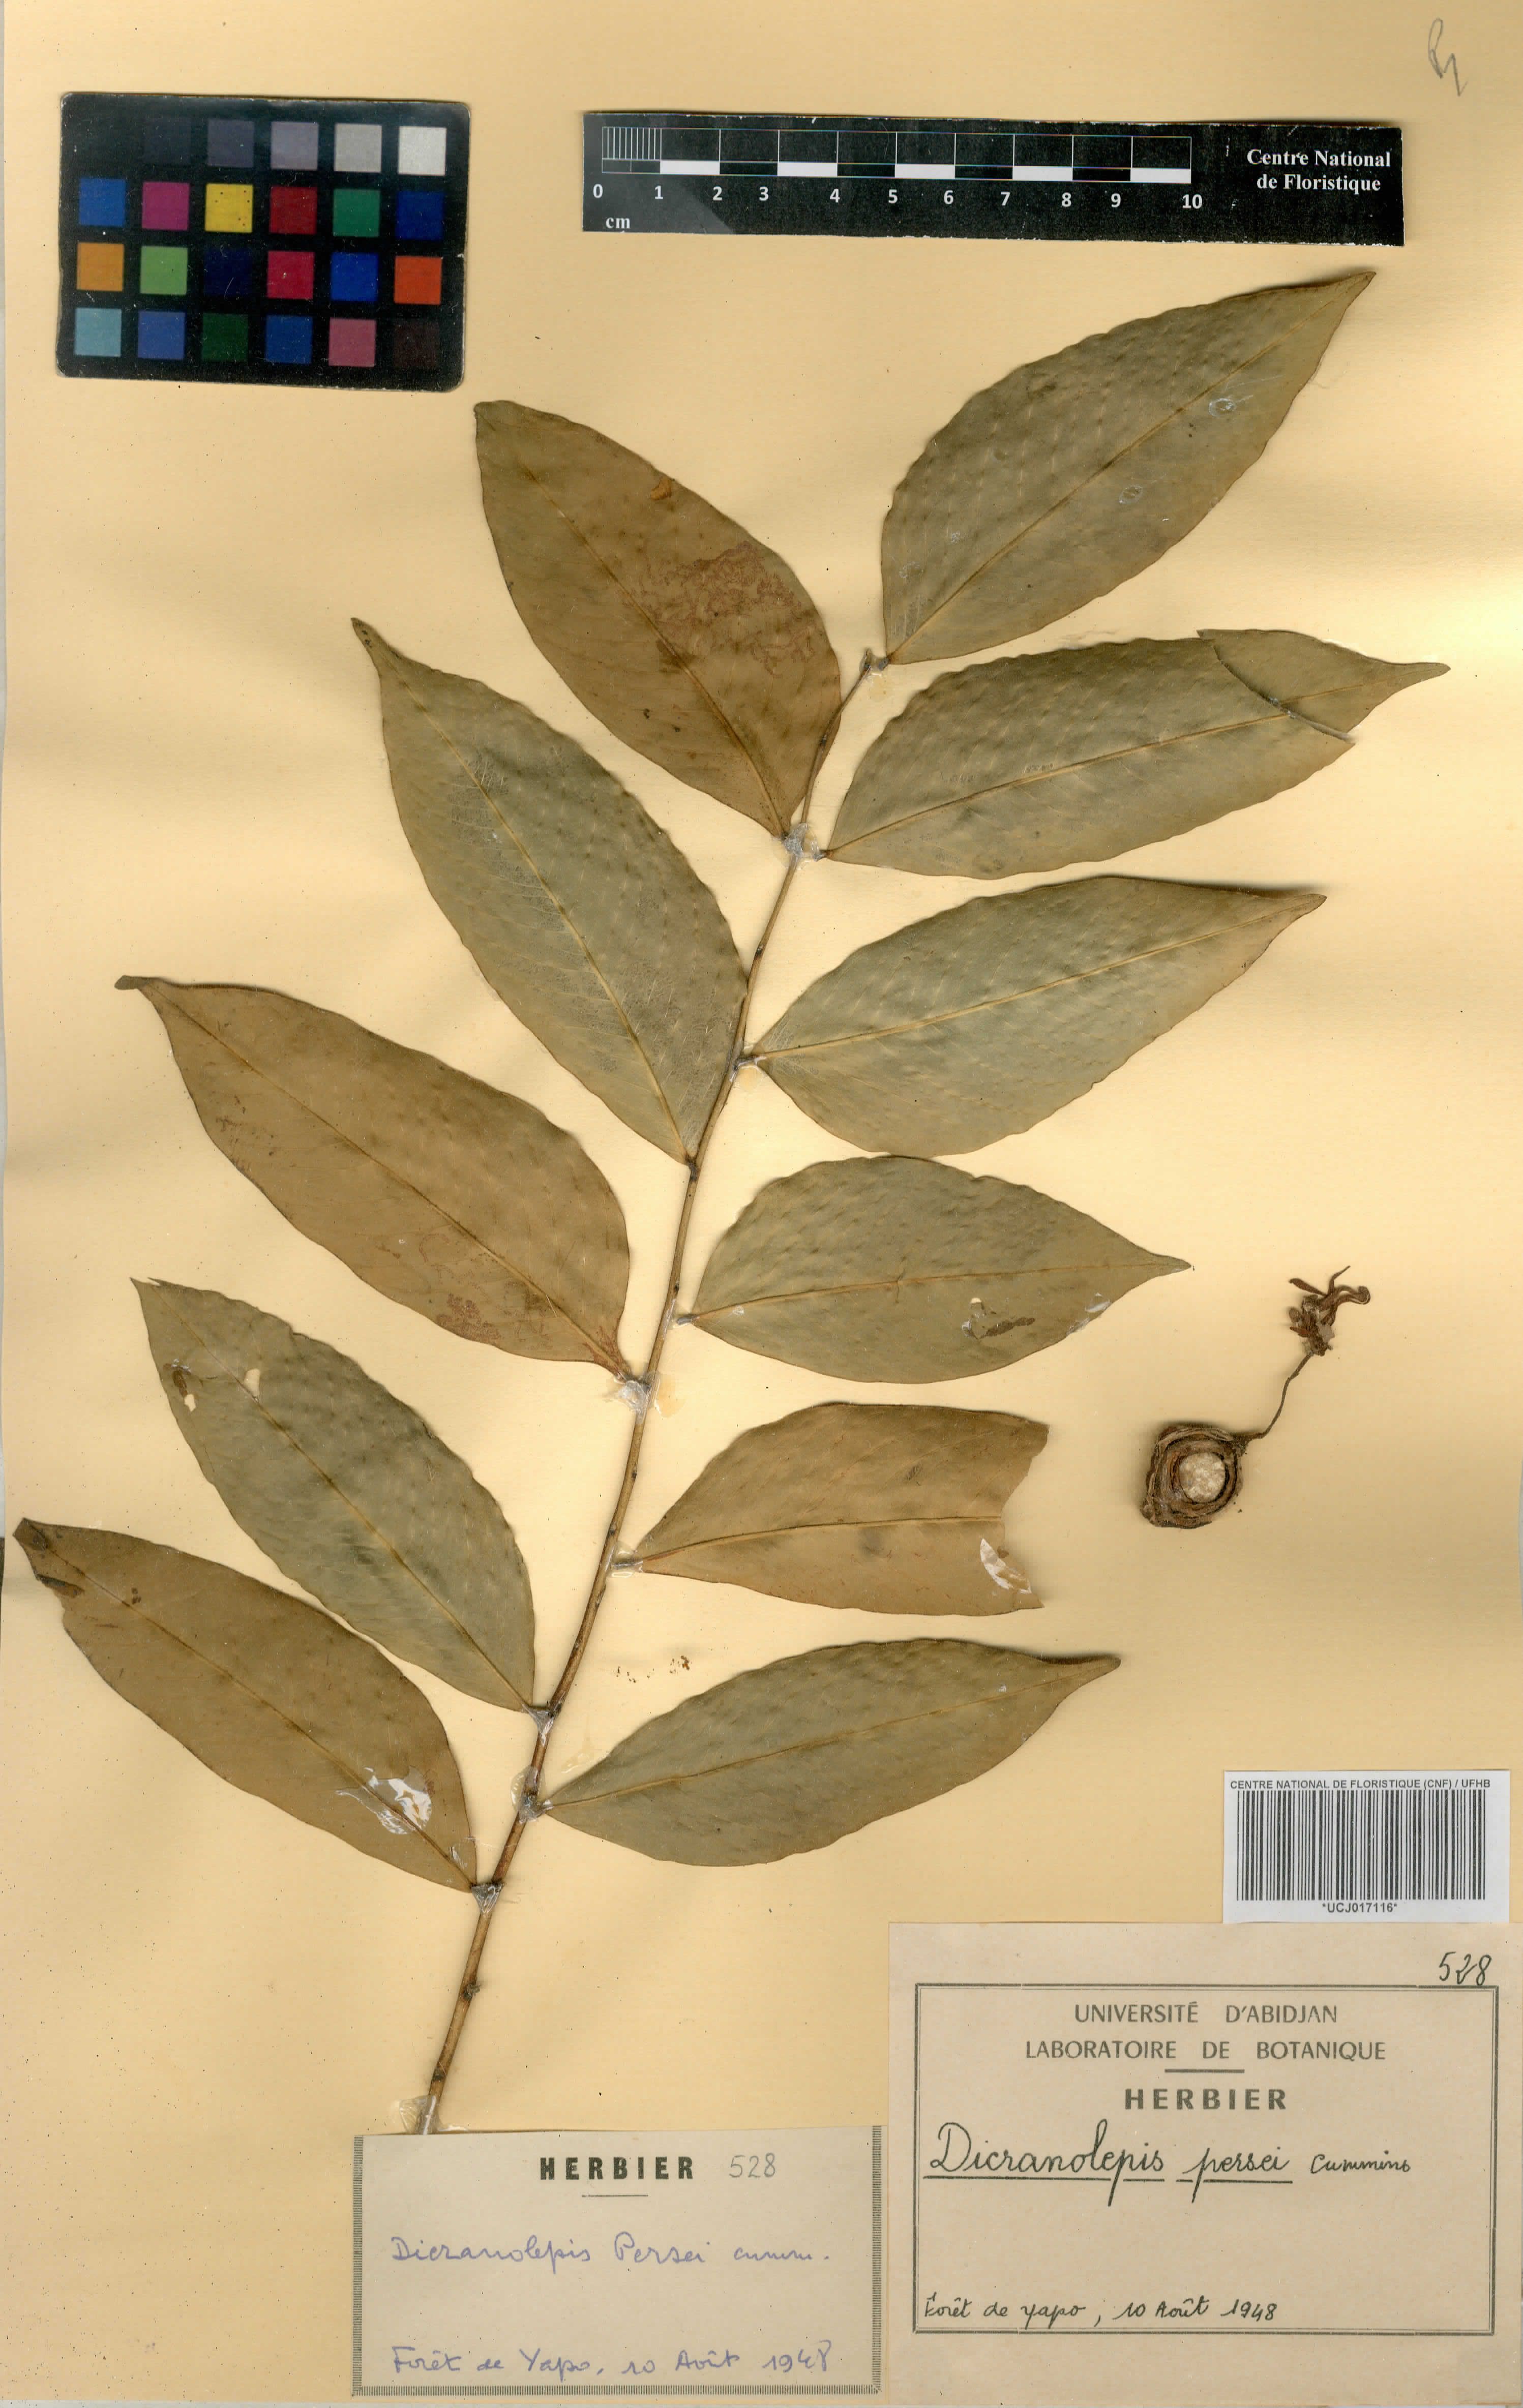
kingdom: Plantae
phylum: Tracheophyta
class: Magnoliopsida
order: Malvales
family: Thymelaeaceae
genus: Dicranolepis
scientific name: Dicranolepis persei
